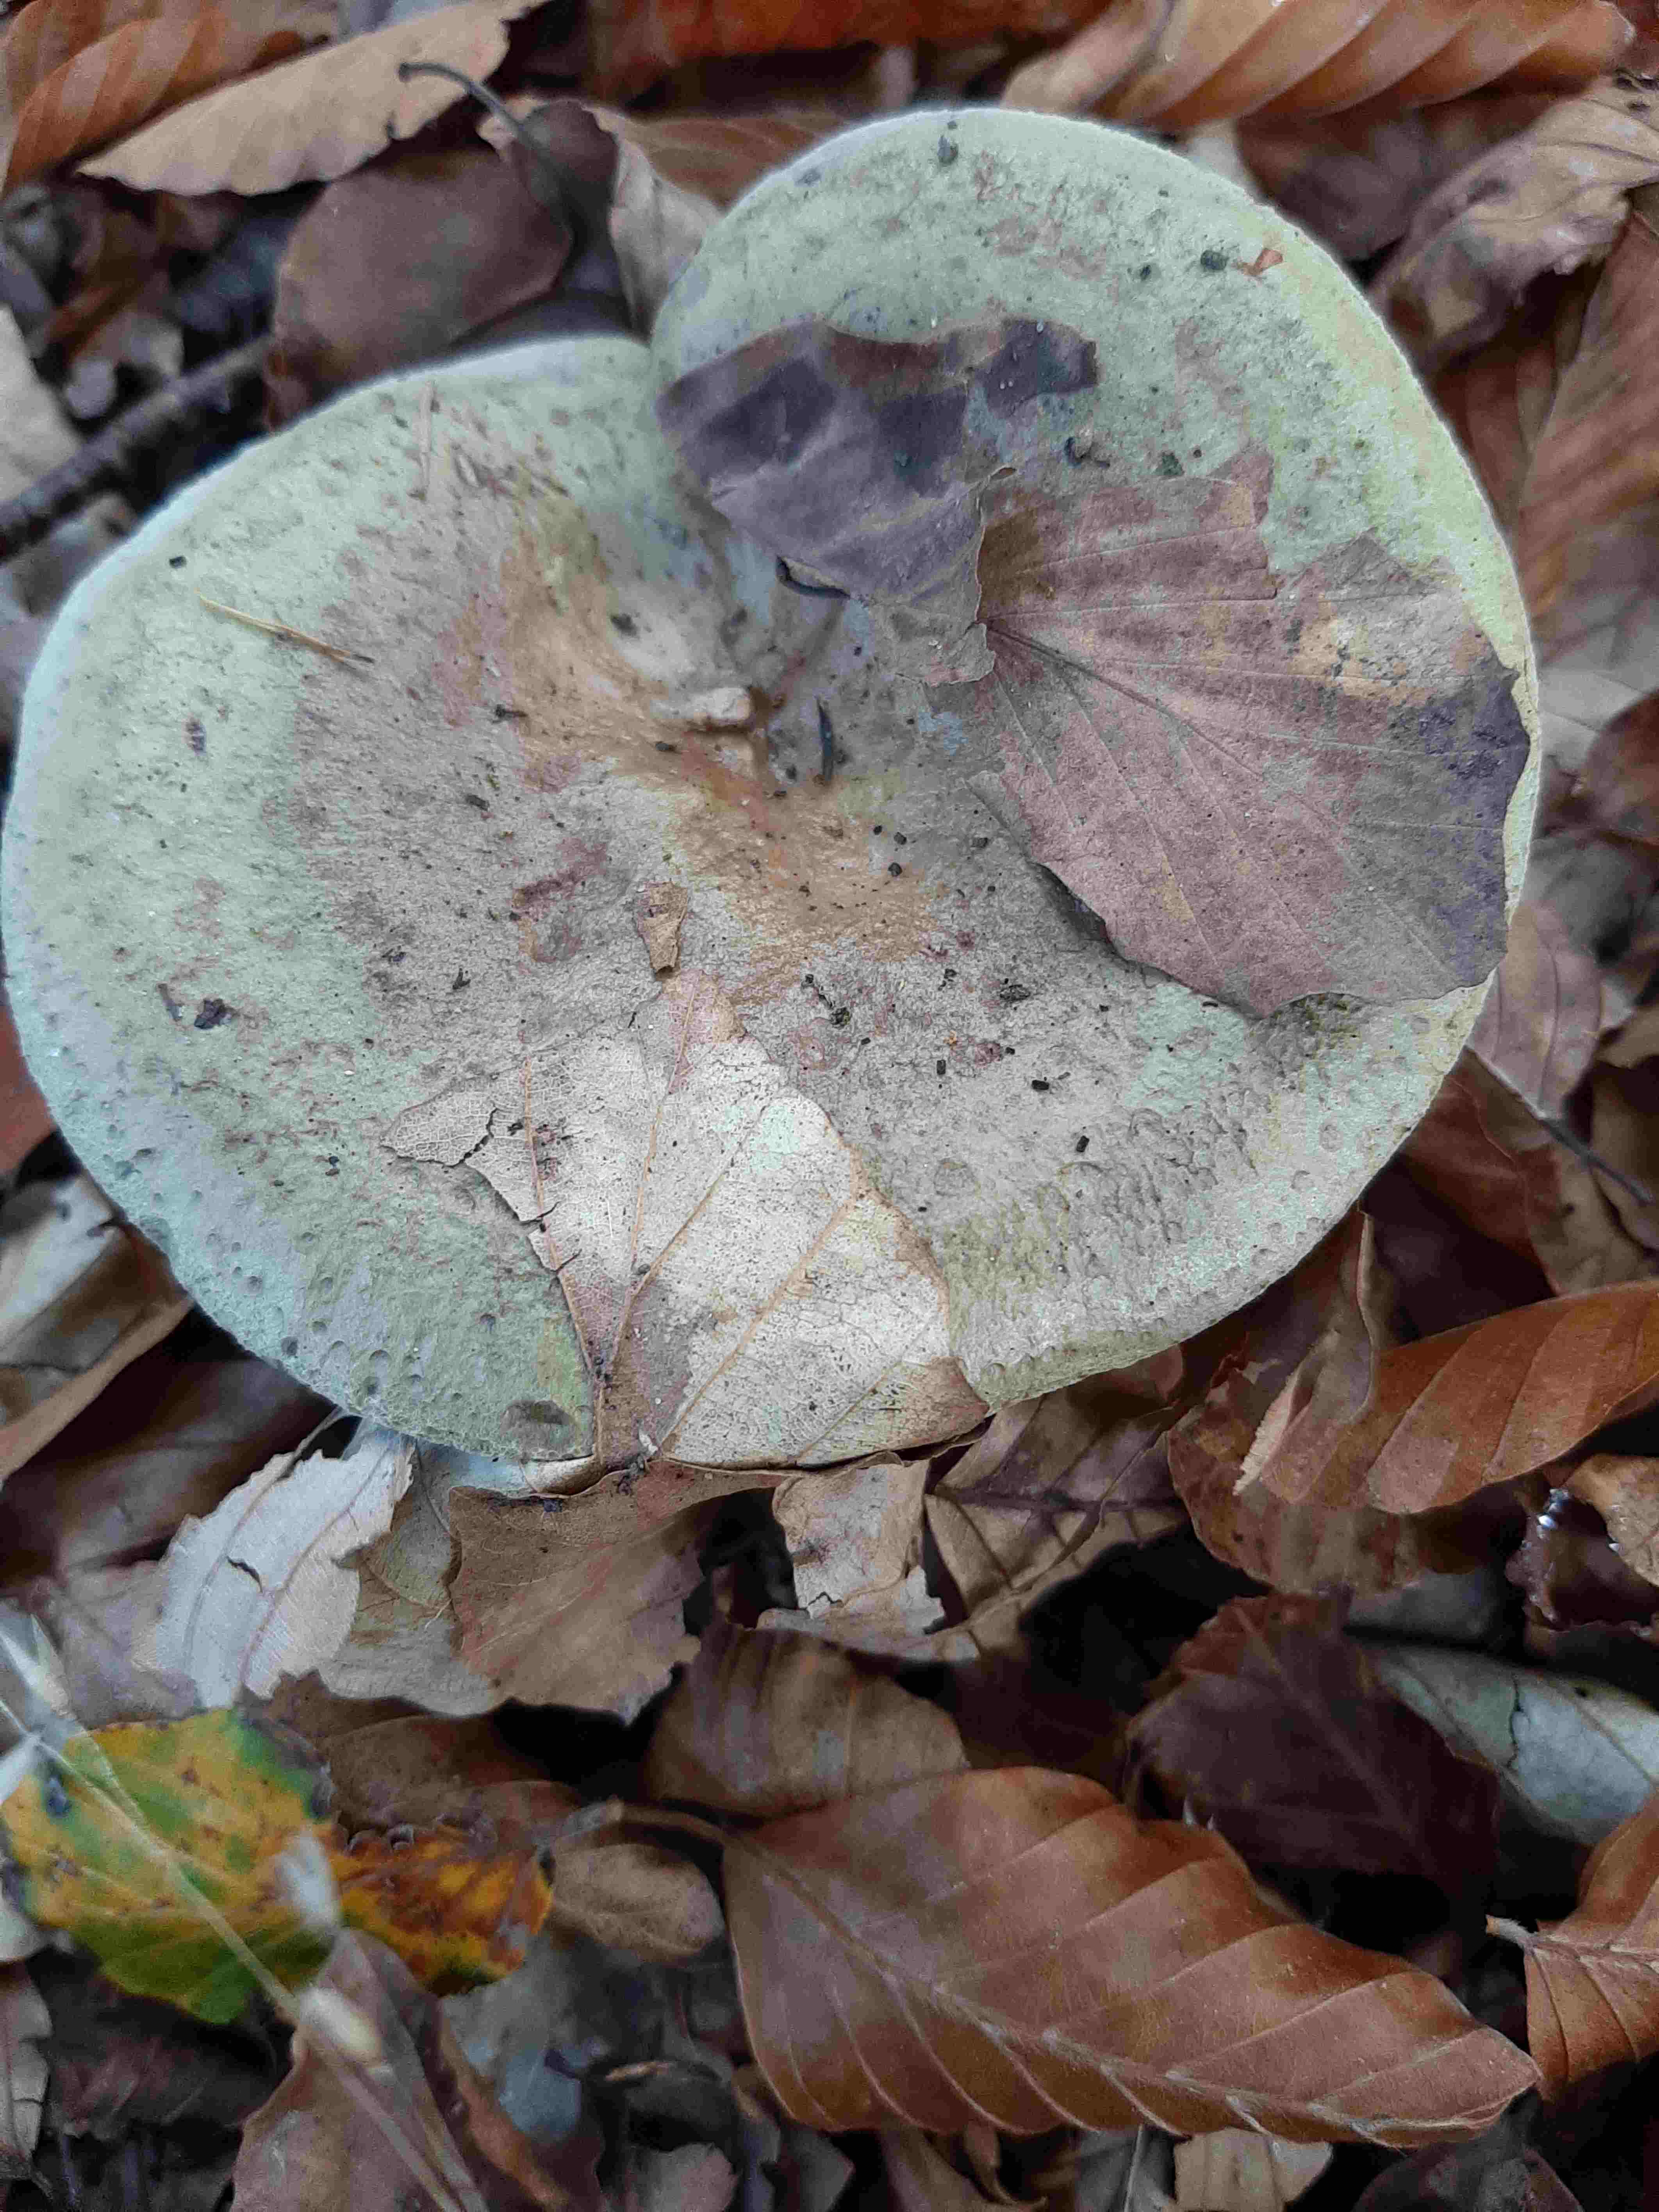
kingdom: Fungi
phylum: Basidiomycota
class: Agaricomycetes
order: Russulales
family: Russulaceae
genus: Lactarius
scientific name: Lactarius blennius
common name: dråbeplettet mælkehat
